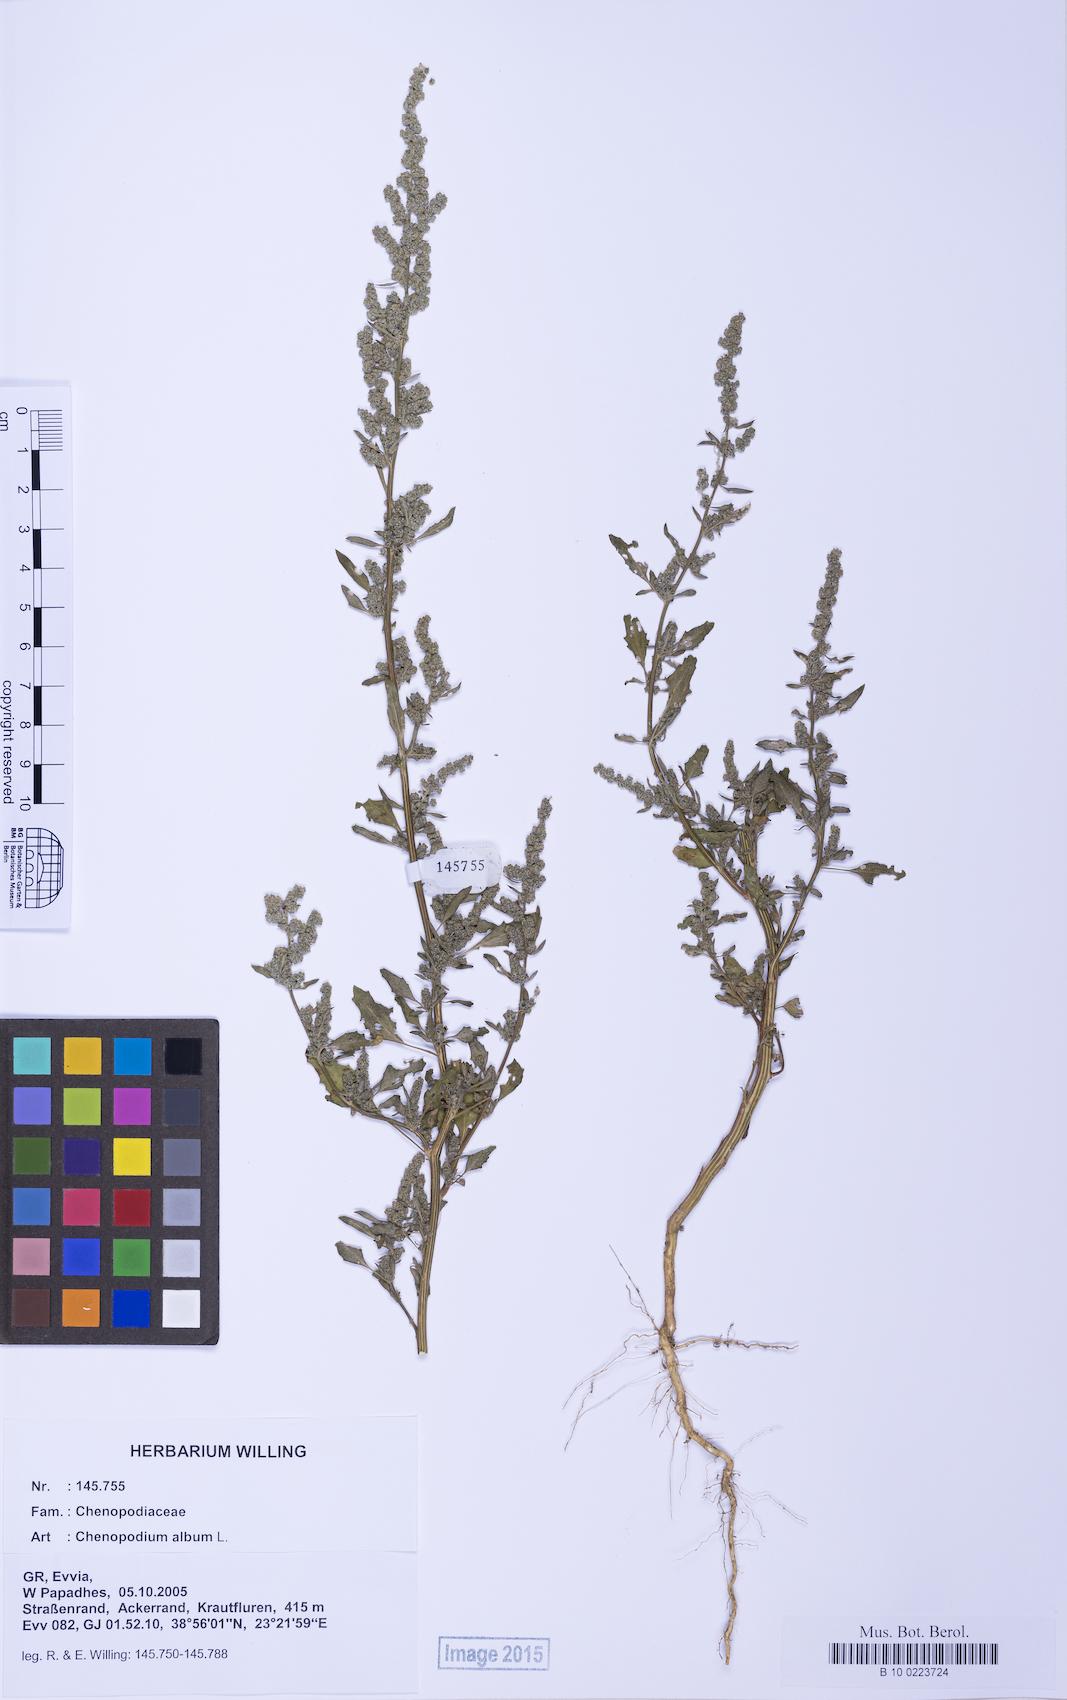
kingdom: Plantae
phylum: Tracheophyta
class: Magnoliopsida
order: Caryophyllales
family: Amaranthaceae
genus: Chenopodium
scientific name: Chenopodium album
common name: Fat-hen
